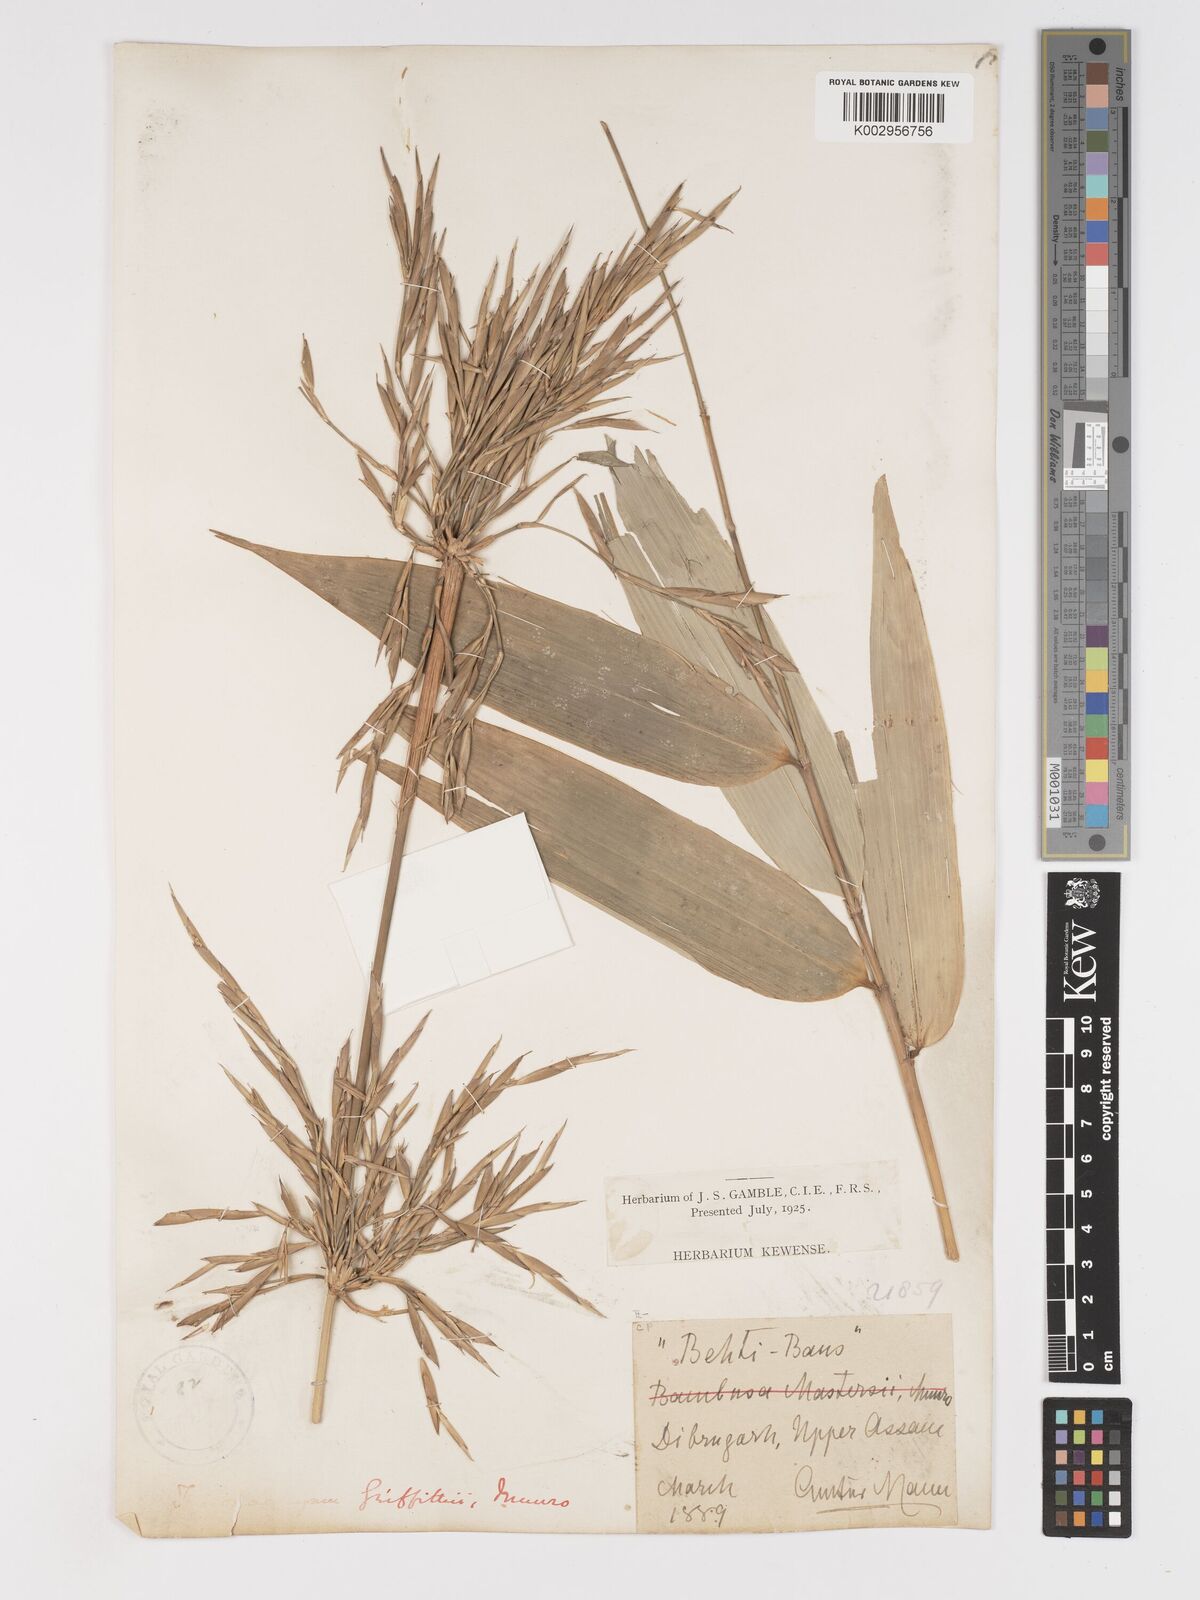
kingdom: Plantae
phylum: Tracheophyta
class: Liliopsida
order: Poales
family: Poaceae
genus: Schizostachyum
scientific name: Schizostachyum griffithii
